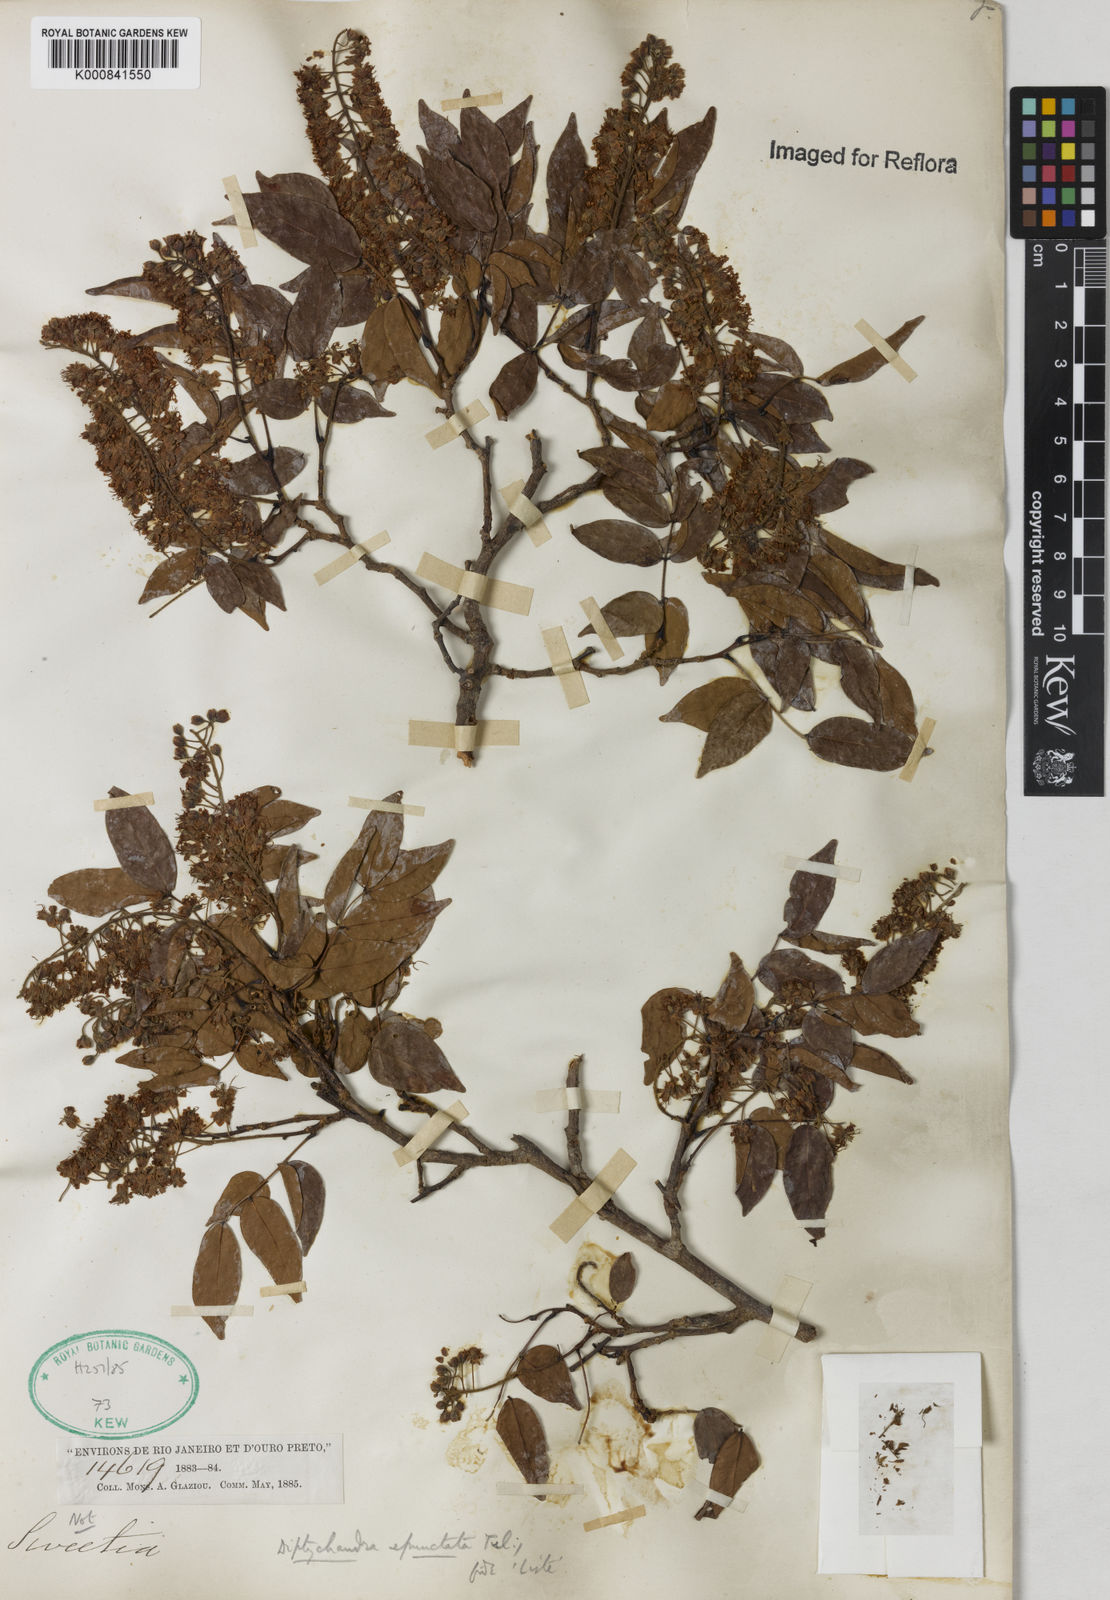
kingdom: Plantae
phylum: Tracheophyta
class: Magnoliopsida
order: Fabales
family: Fabaceae
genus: Diptychandra
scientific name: Diptychandra aurantiaca
